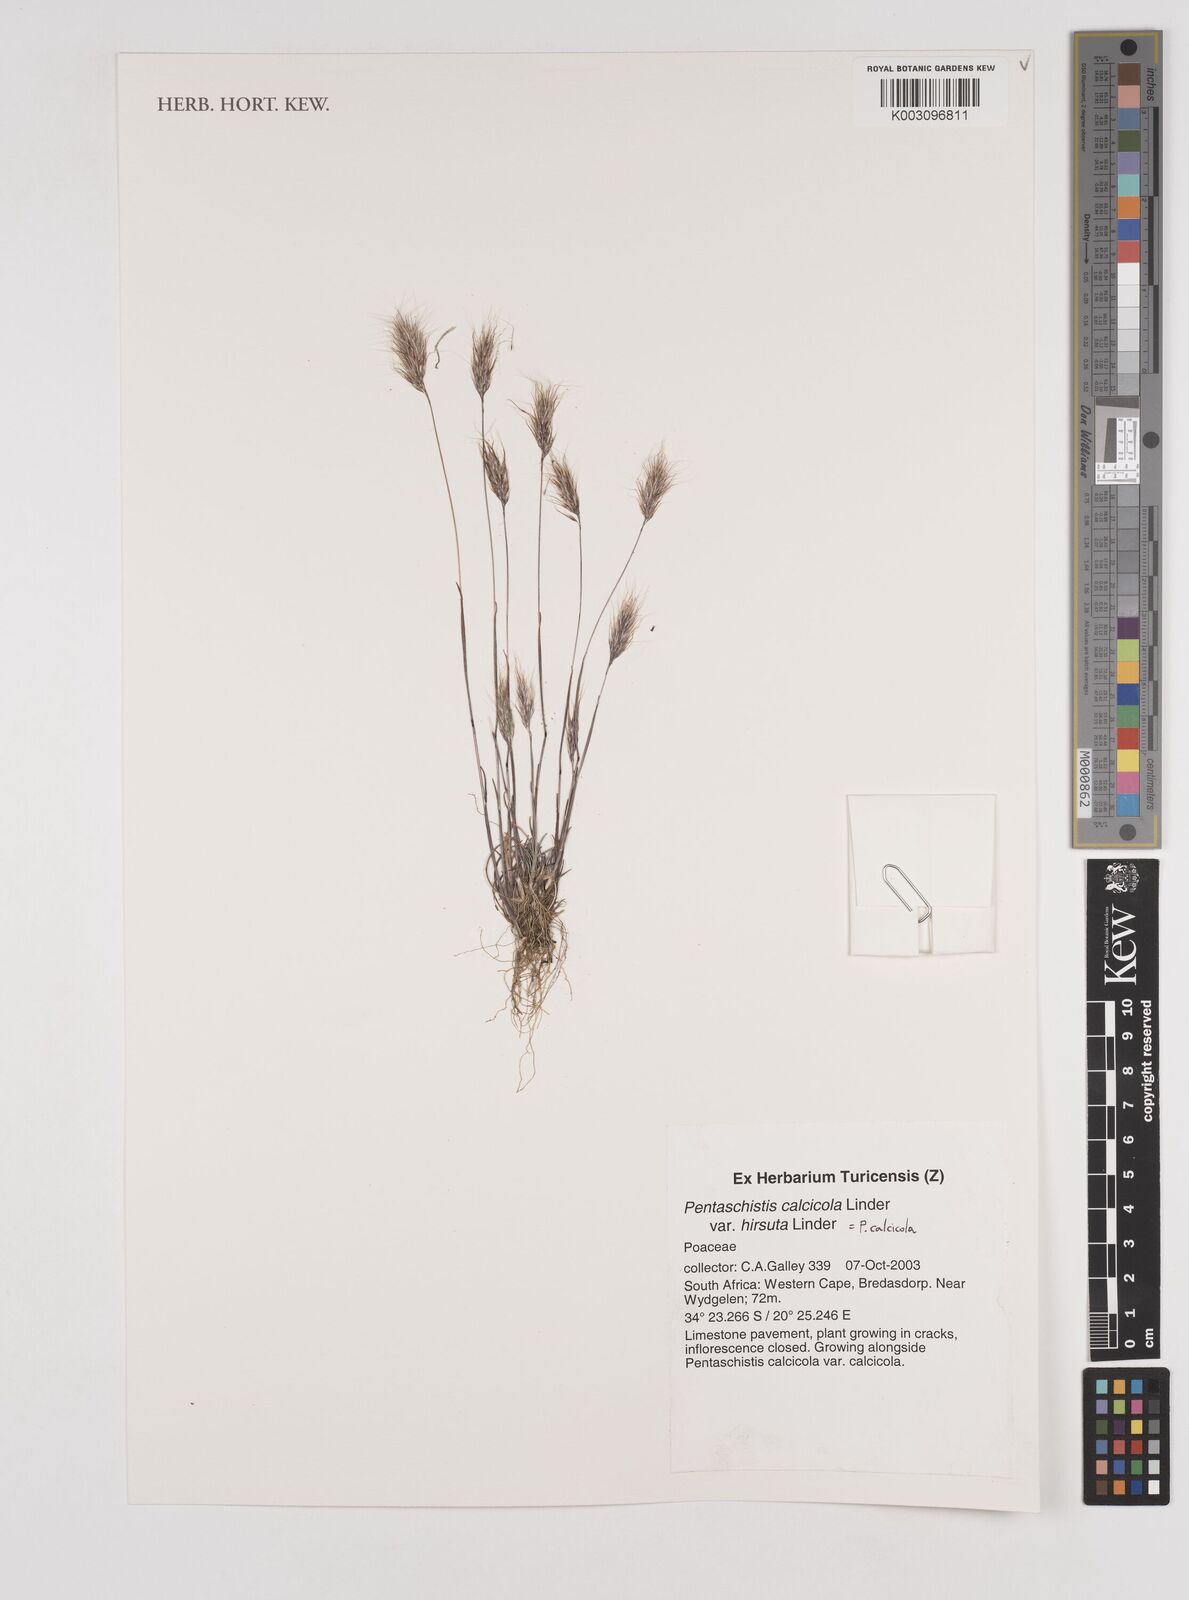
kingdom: Plantae
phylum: Tracheophyta
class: Liliopsida
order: Poales
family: Poaceae
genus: Pentameris
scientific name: Pentameris calcicola
